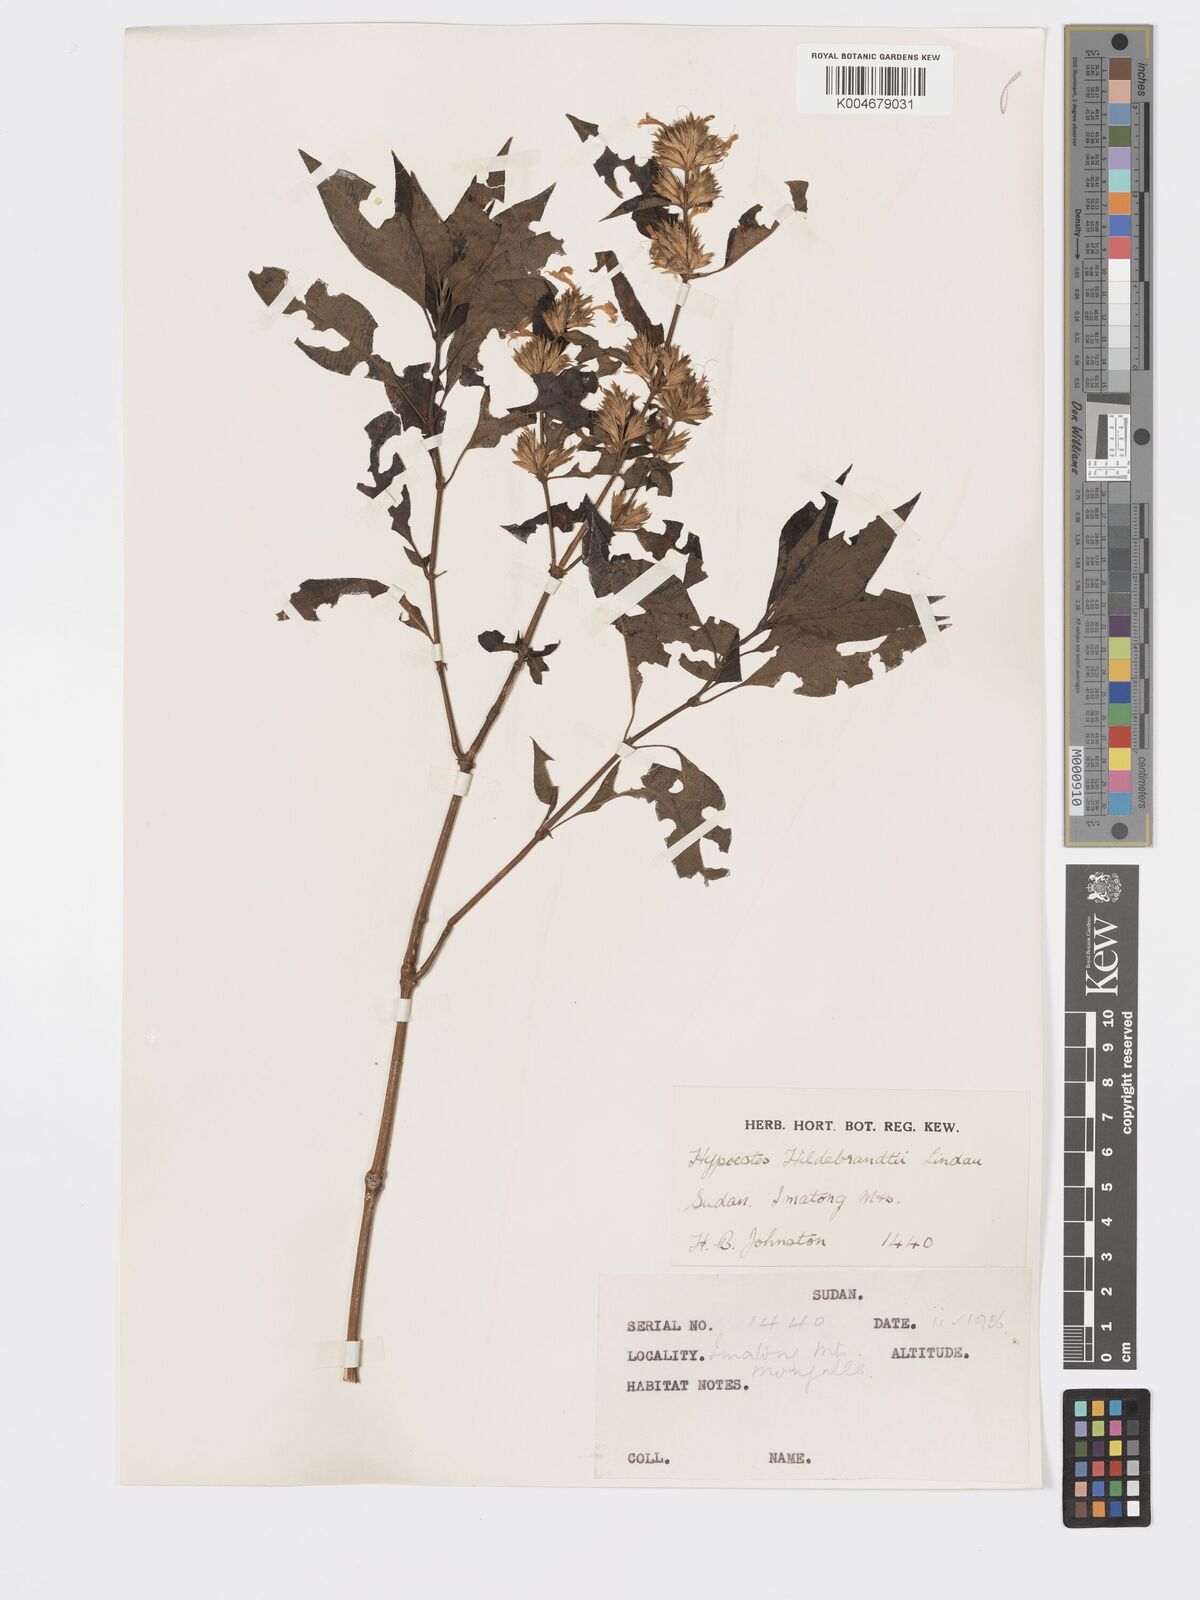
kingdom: Plantae
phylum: Tracheophyta
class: Magnoliopsida
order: Lamiales
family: Acanthaceae
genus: Hypoestes
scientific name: Hypoestes forskaolii
